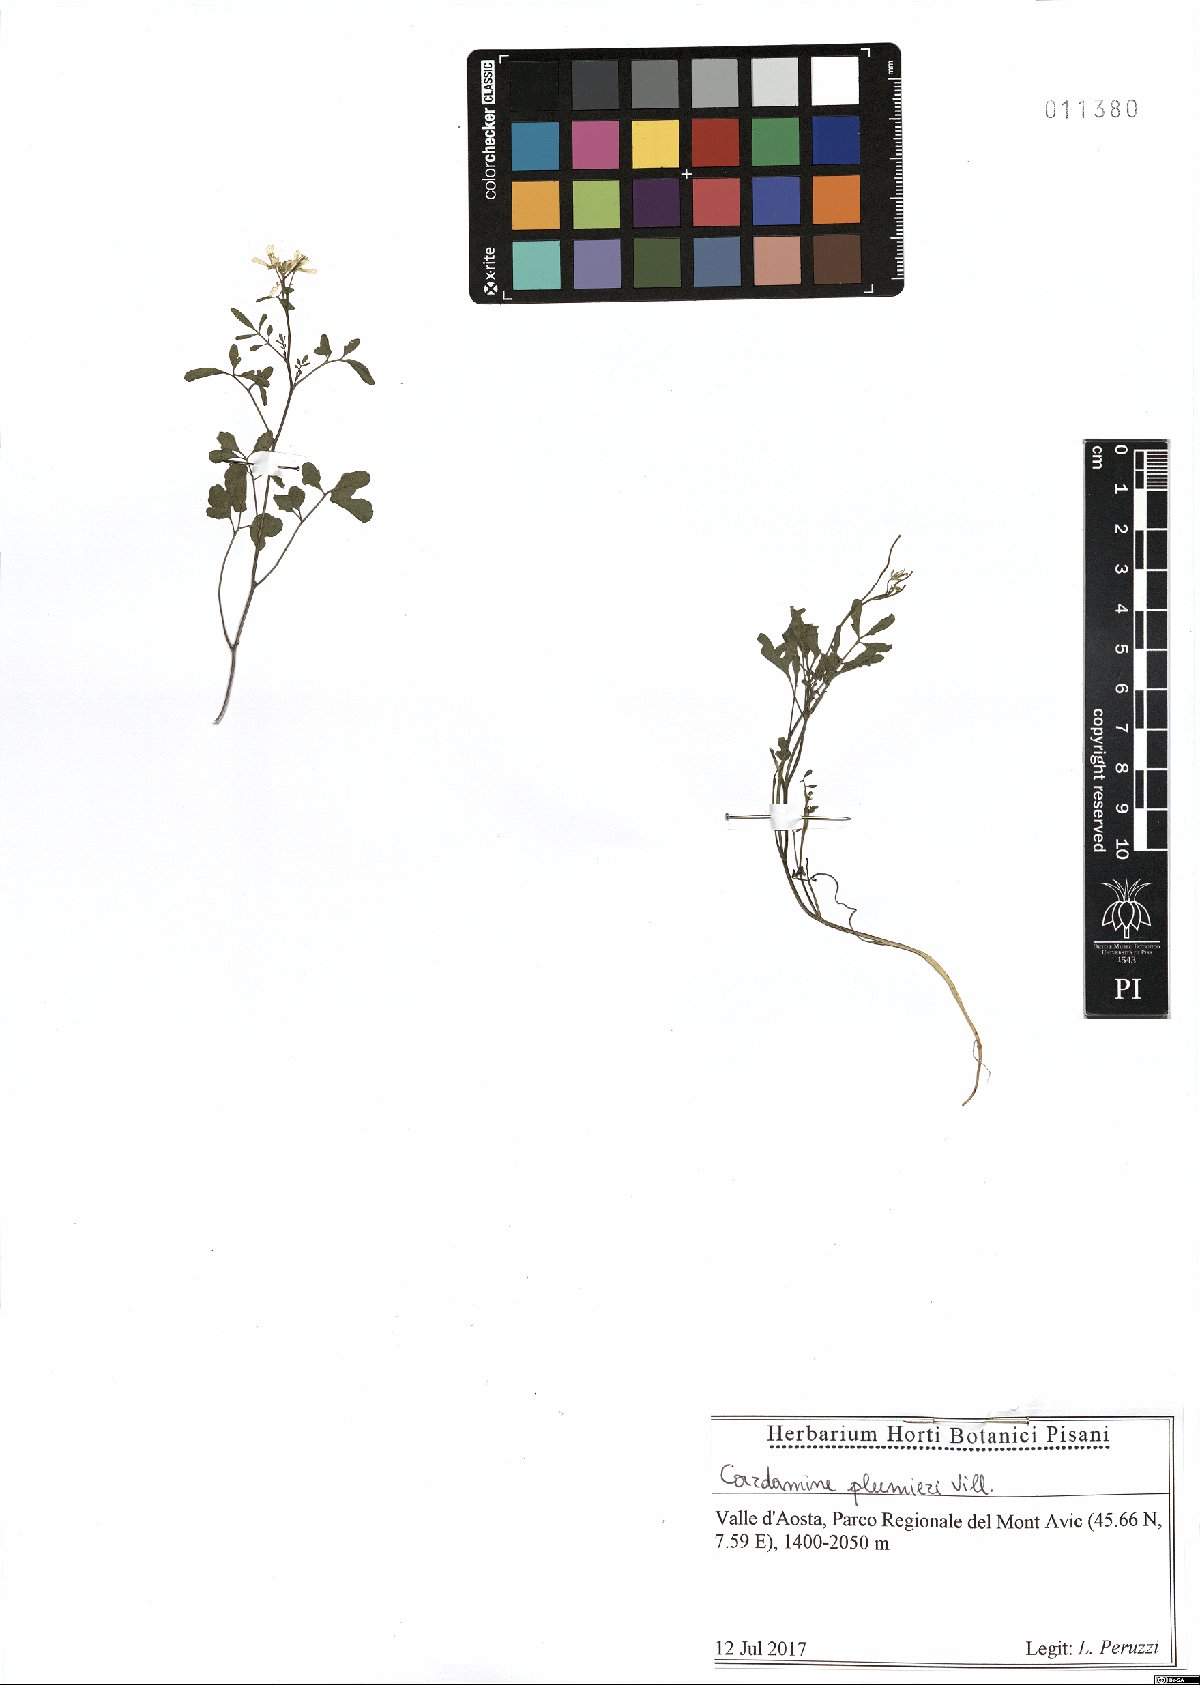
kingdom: Plantae
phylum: Tracheophyta
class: Magnoliopsida
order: Brassicales
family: Brassicaceae
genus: Cardamine
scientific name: Cardamine plumierii
